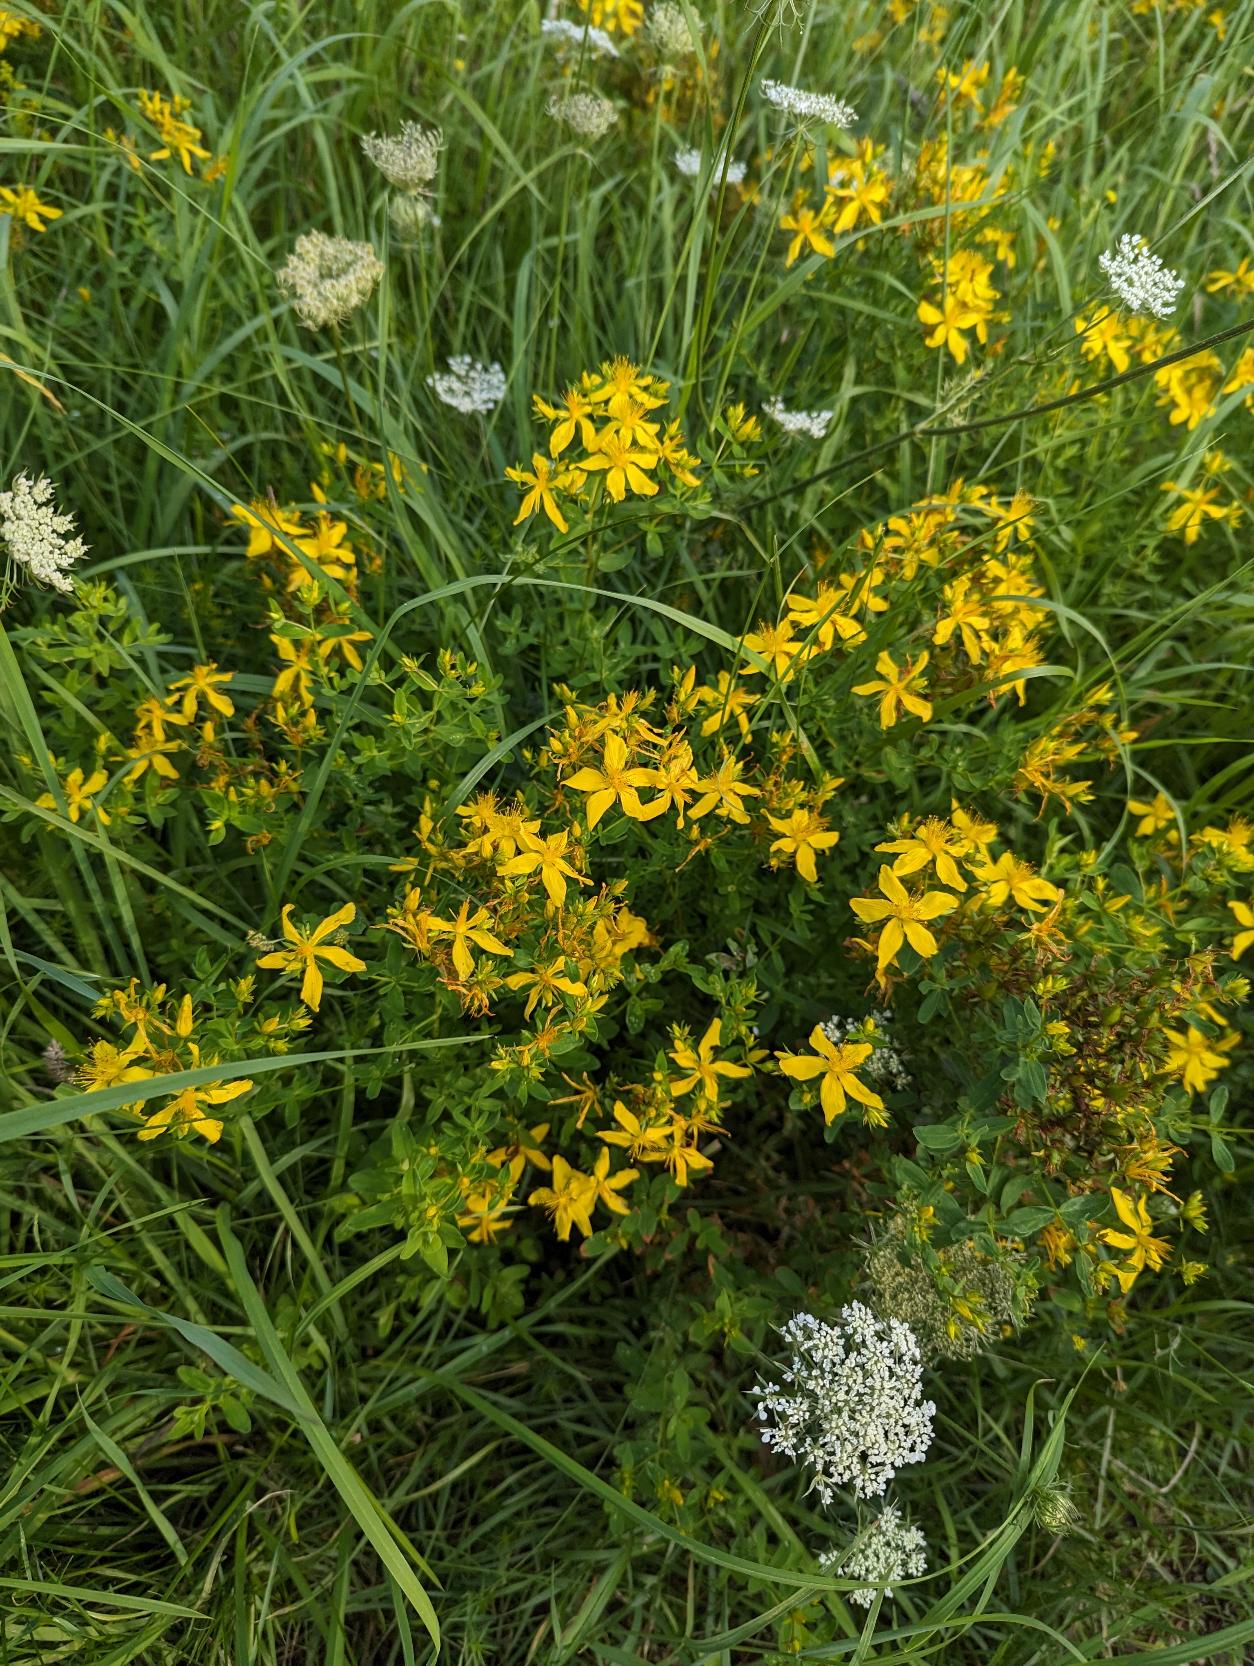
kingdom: Plantae
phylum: Tracheophyta
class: Magnoliopsida
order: Malpighiales
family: Hypericaceae
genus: Hypericum
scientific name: Hypericum perforatum
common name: Prikbladet perikon
